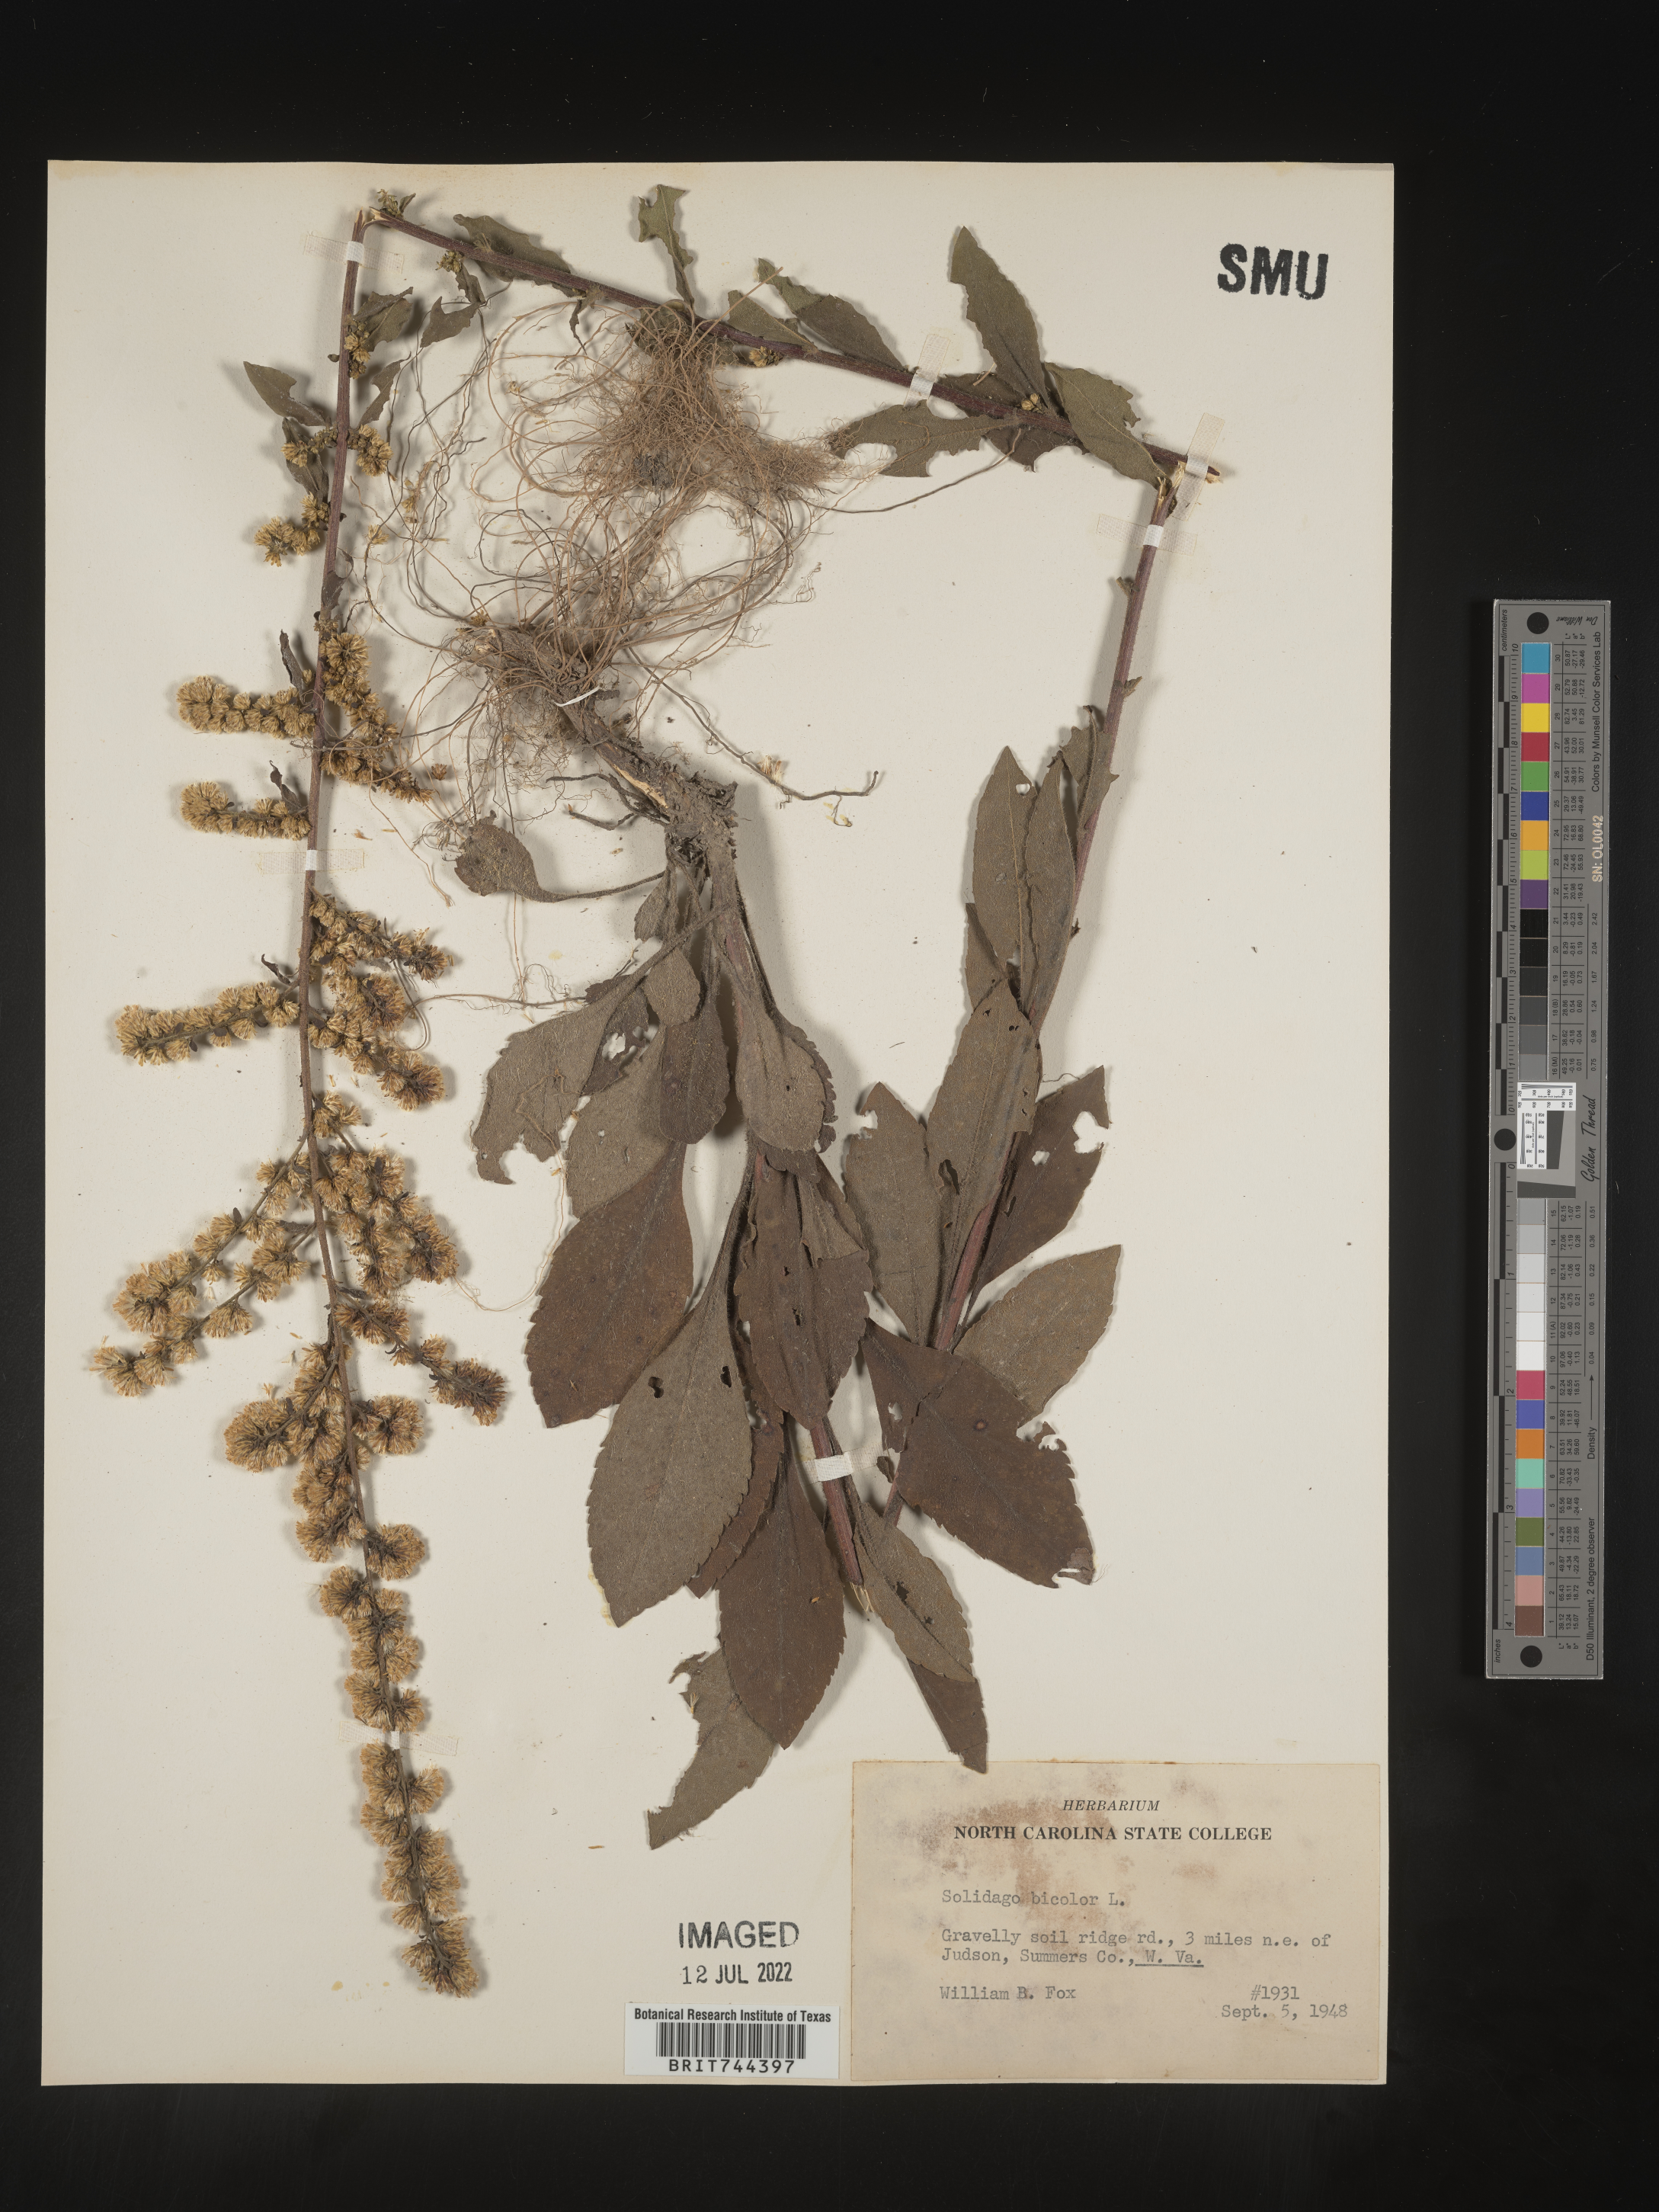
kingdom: Plantae
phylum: Tracheophyta
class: Magnoliopsida
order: Asterales
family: Asteraceae
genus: Solidago
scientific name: Solidago bicolor
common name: Silverrod
